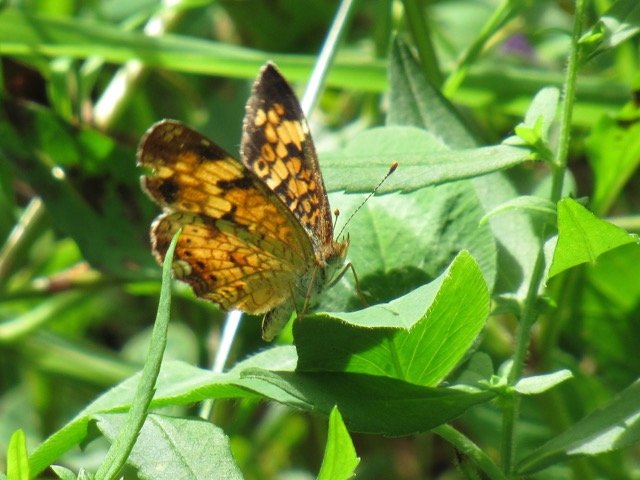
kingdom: Animalia
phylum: Arthropoda
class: Insecta
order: Lepidoptera
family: Nymphalidae
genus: Phyciodes
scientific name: Phyciodes tharos
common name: Pearl Crescent
